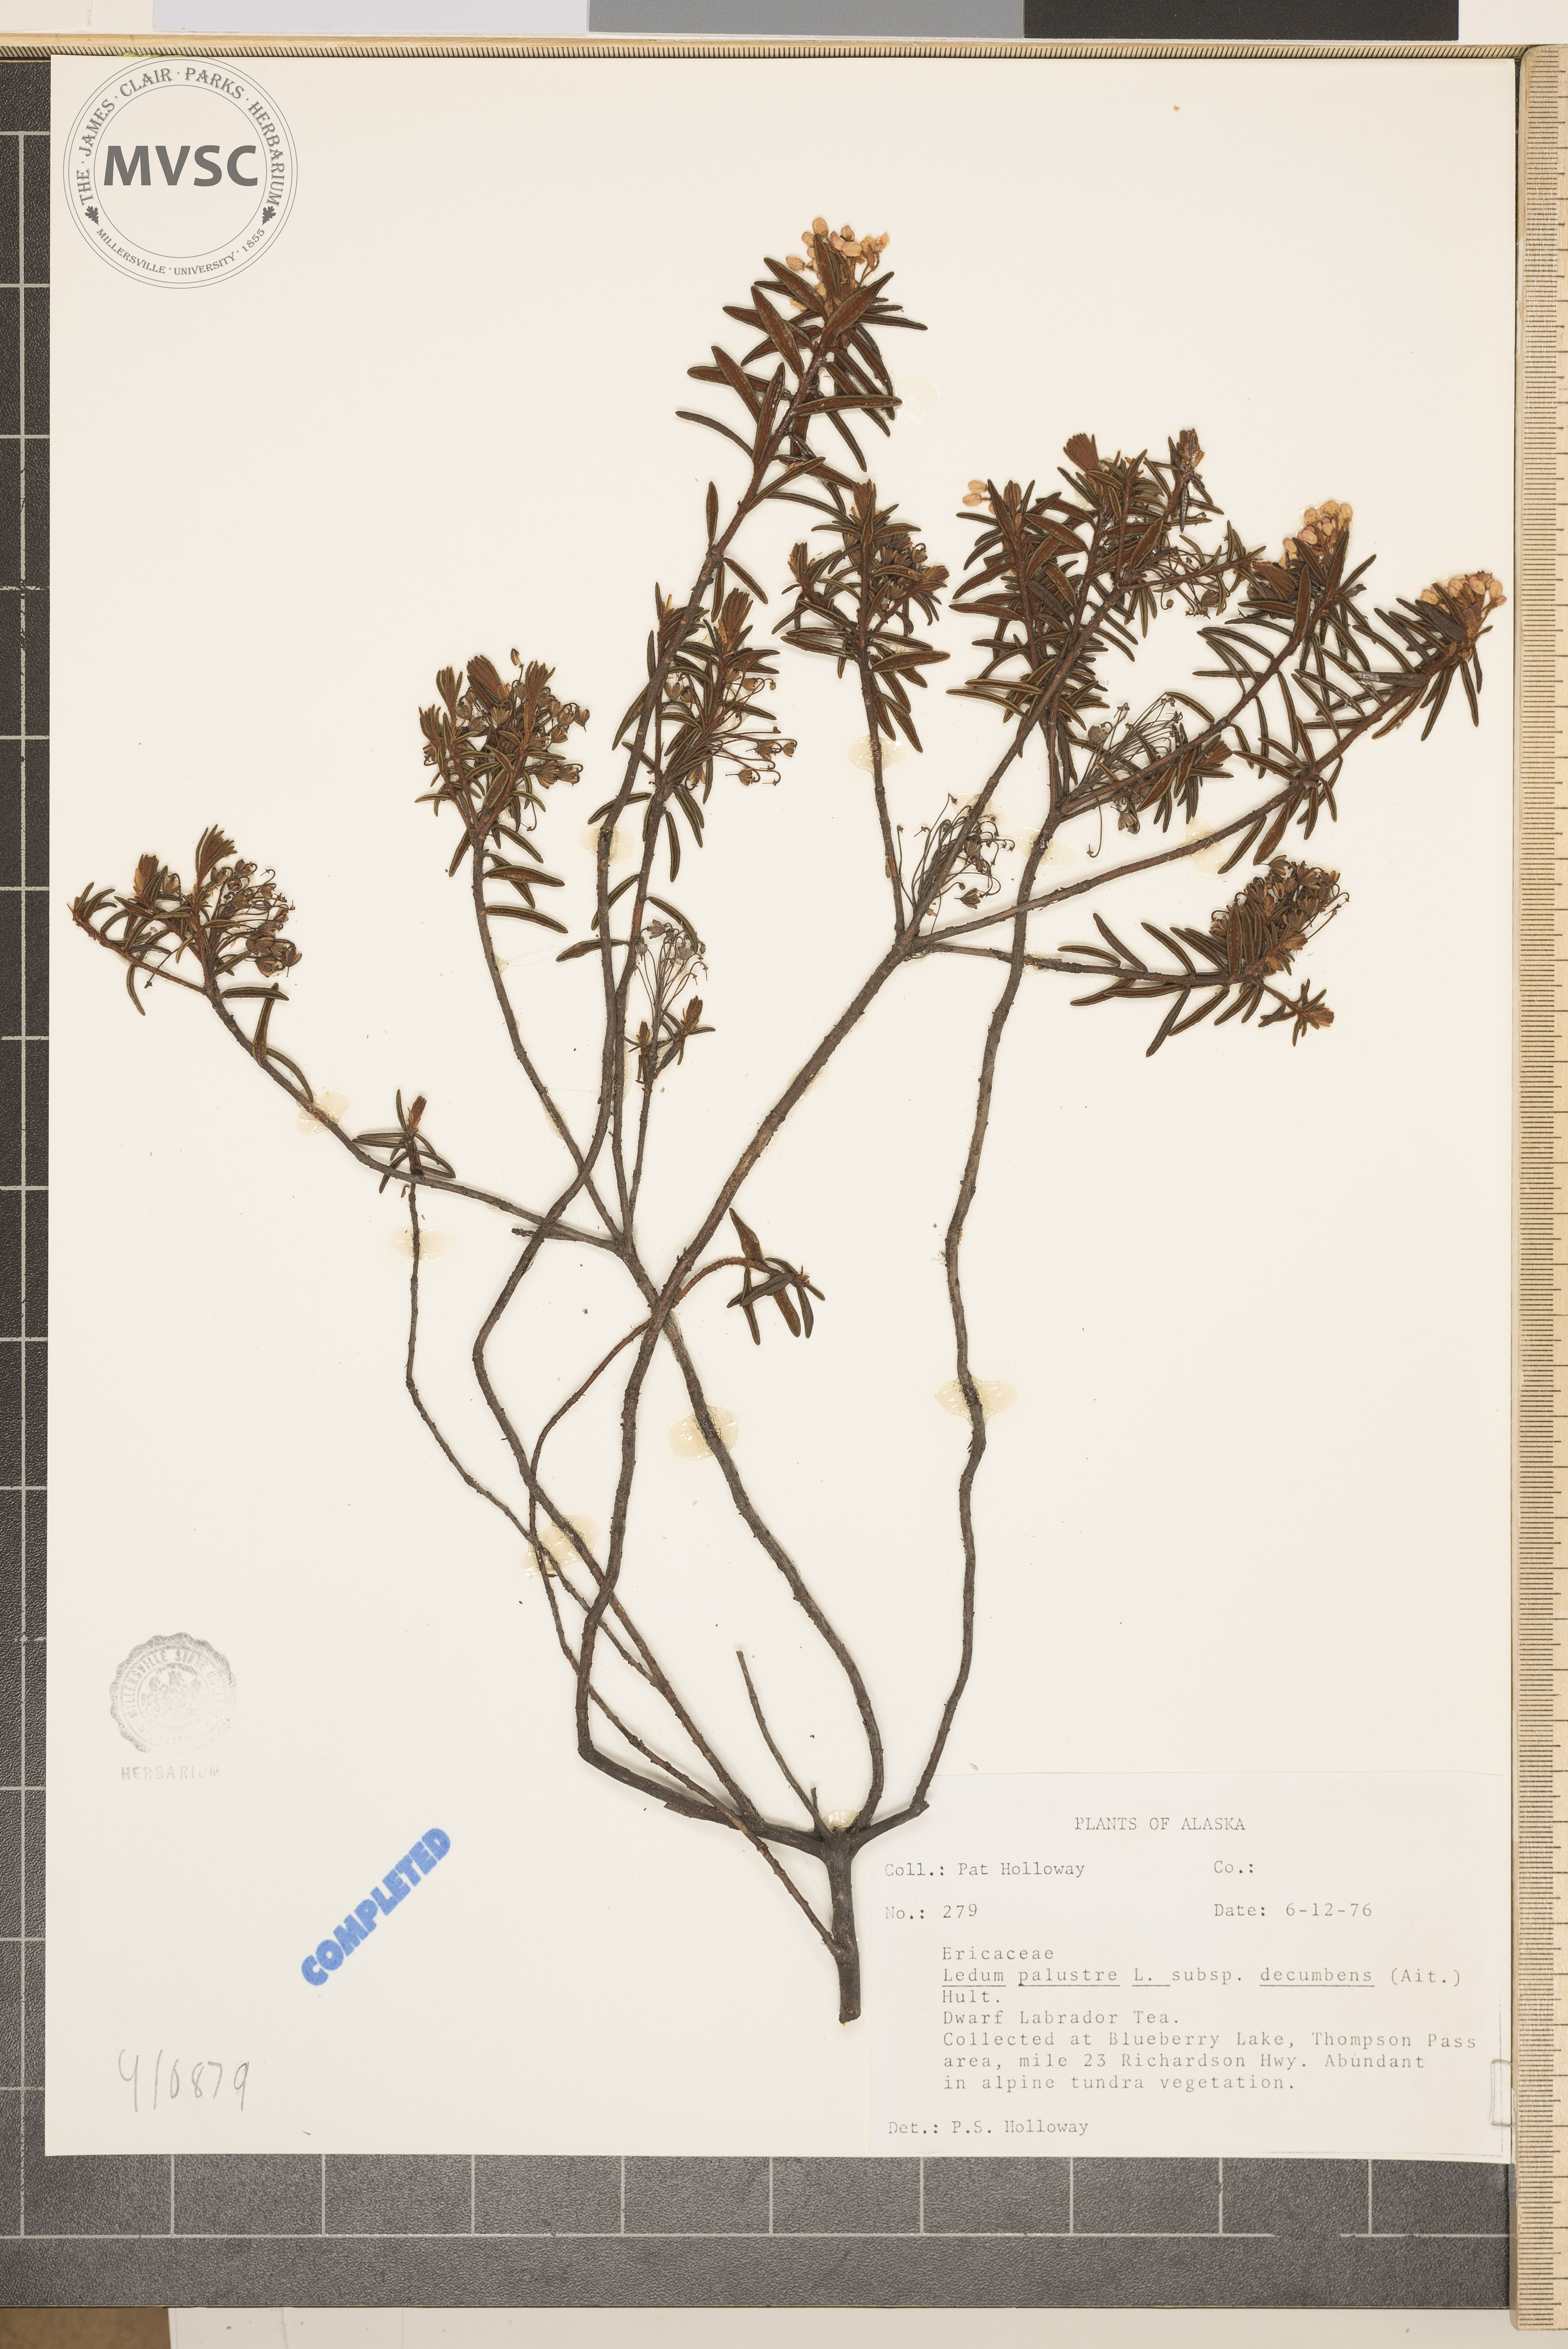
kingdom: Plantae
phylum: Tracheophyta
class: Magnoliopsida
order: Ericales
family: Ericaceae
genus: Rhododendron
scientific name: Rhododendron
